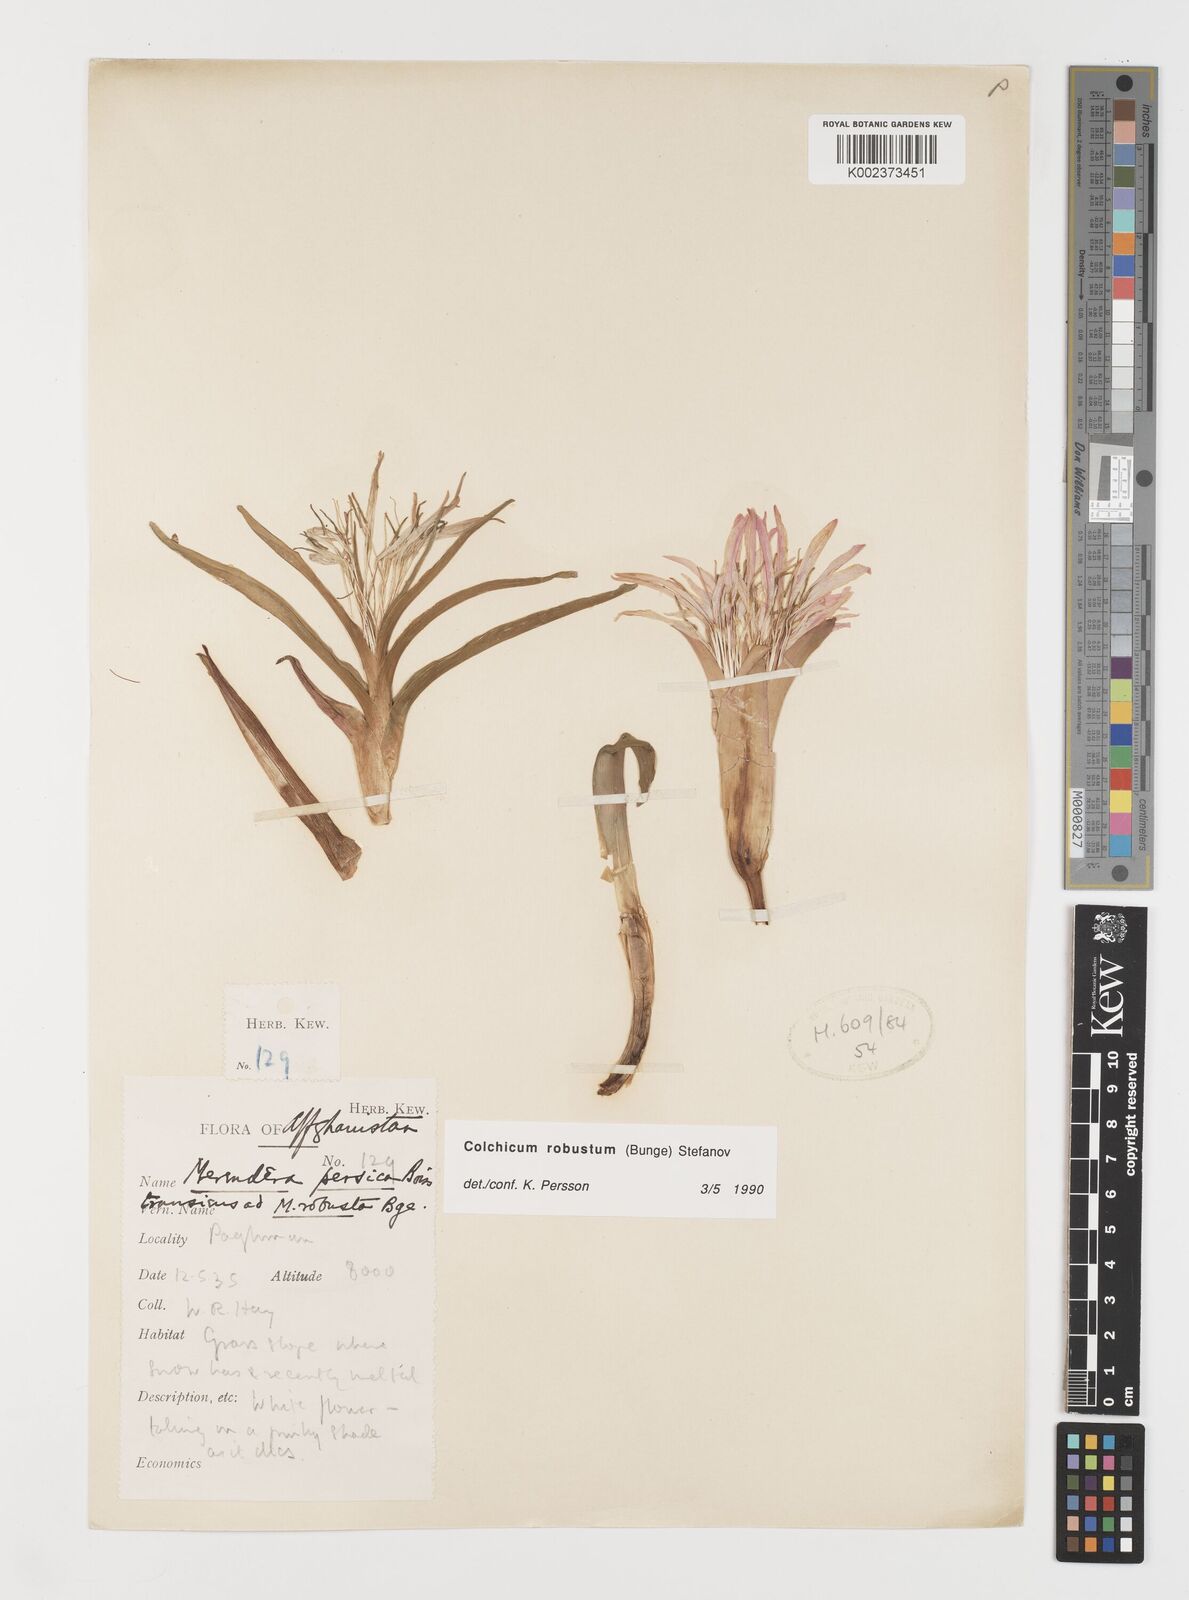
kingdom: Plantae
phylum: Tracheophyta
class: Liliopsida
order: Liliales
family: Colchicaceae
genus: Colchicum
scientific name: Colchicum robustum
